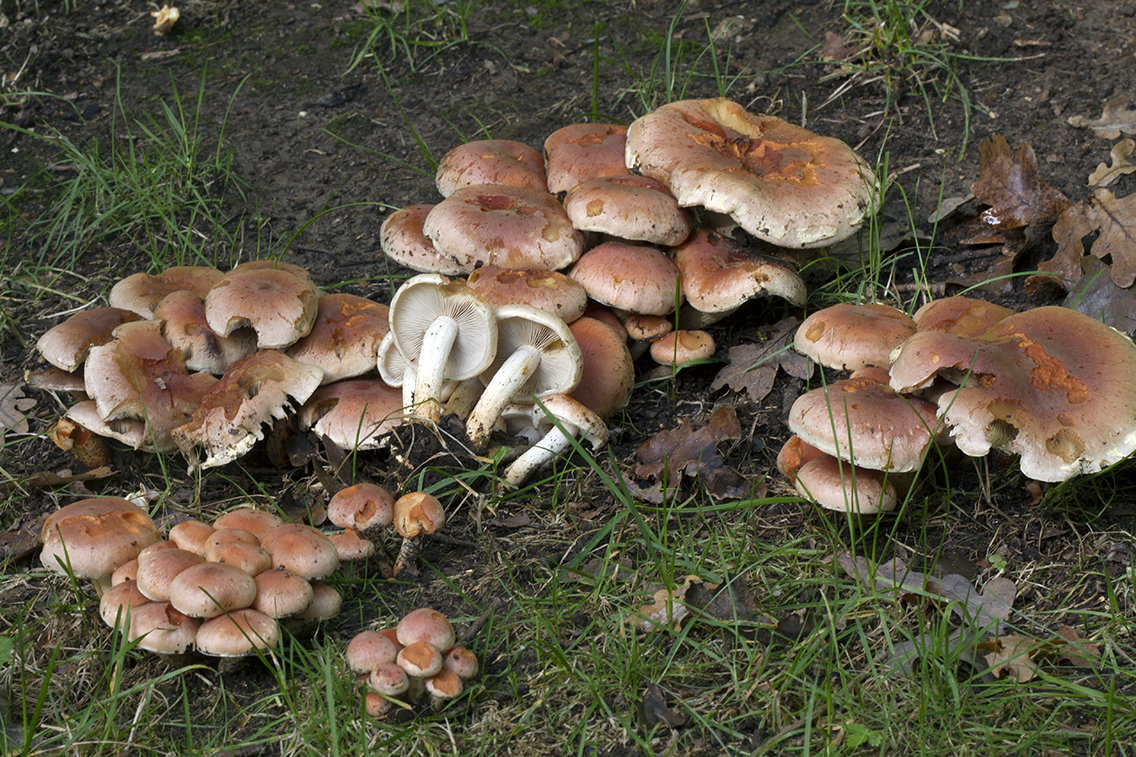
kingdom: Fungi
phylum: Basidiomycota
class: Agaricomycetes
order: Agaricales
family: Strophariaceae
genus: Hypholoma
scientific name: Hypholoma lateritium
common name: teglrød svovlhat
